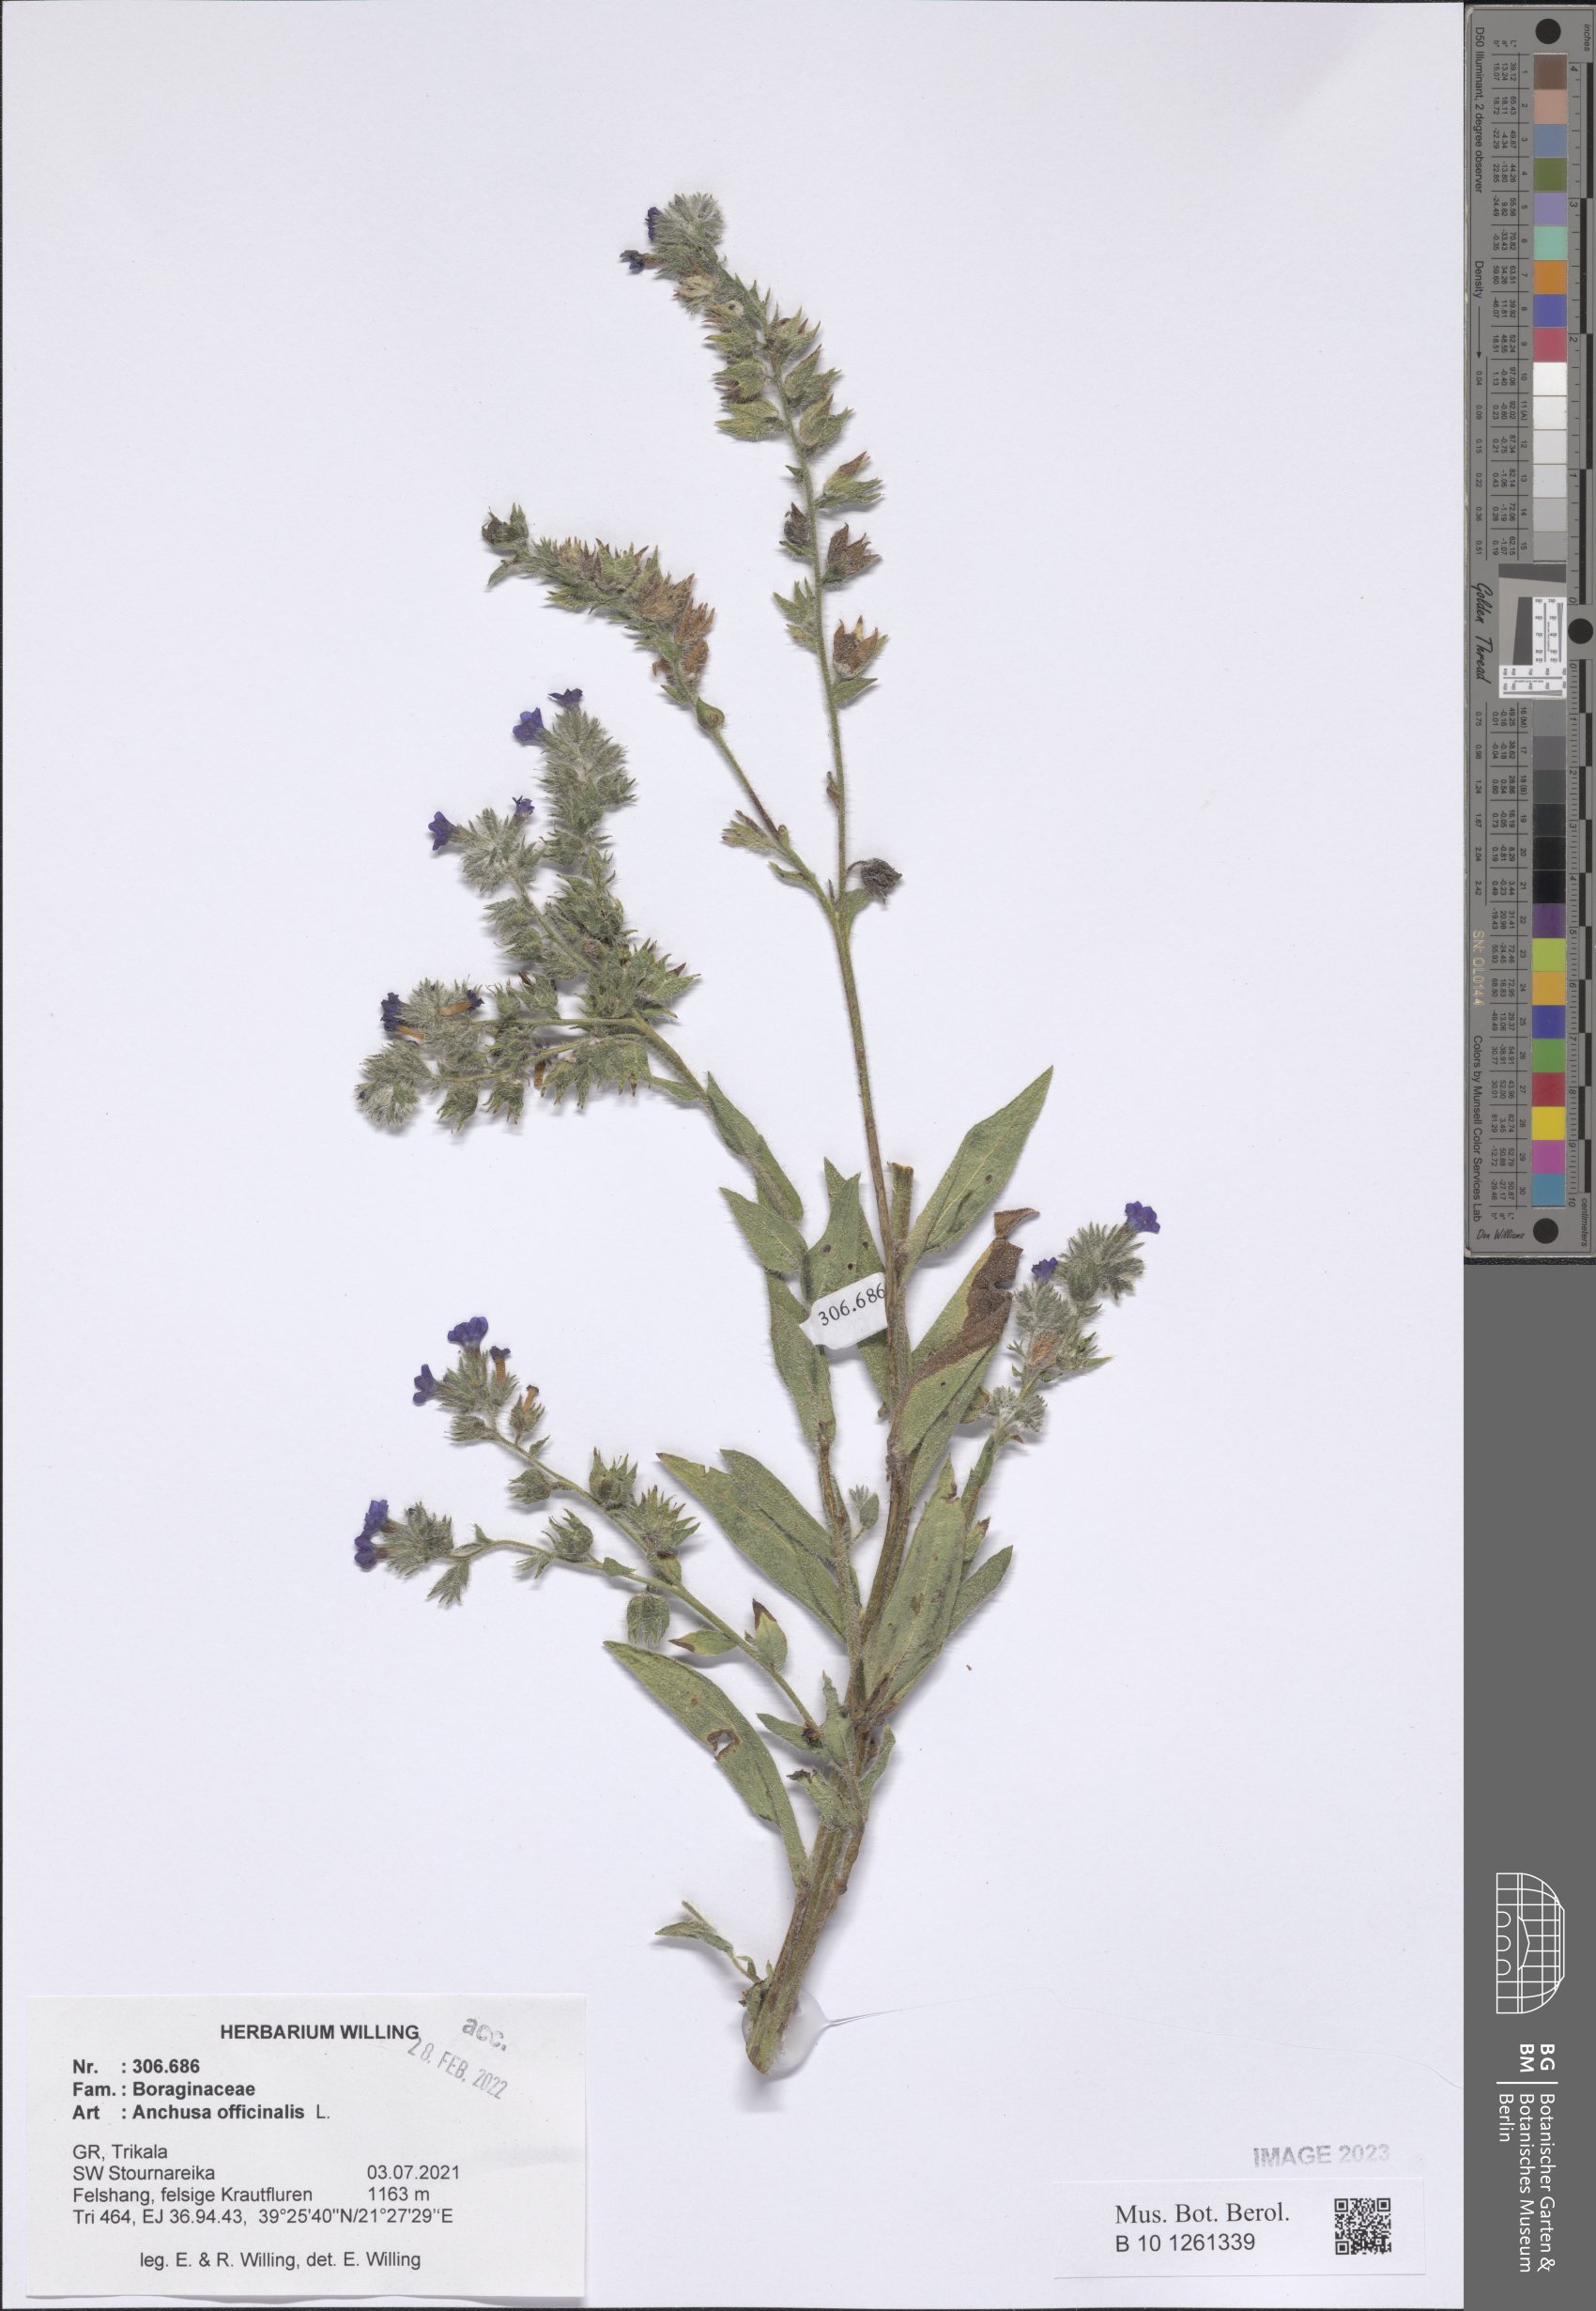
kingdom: Plantae
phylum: Tracheophyta
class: Magnoliopsida
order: Boraginales
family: Boraginaceae
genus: Anchusa
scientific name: Anchusa officinalis
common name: Alkanet
